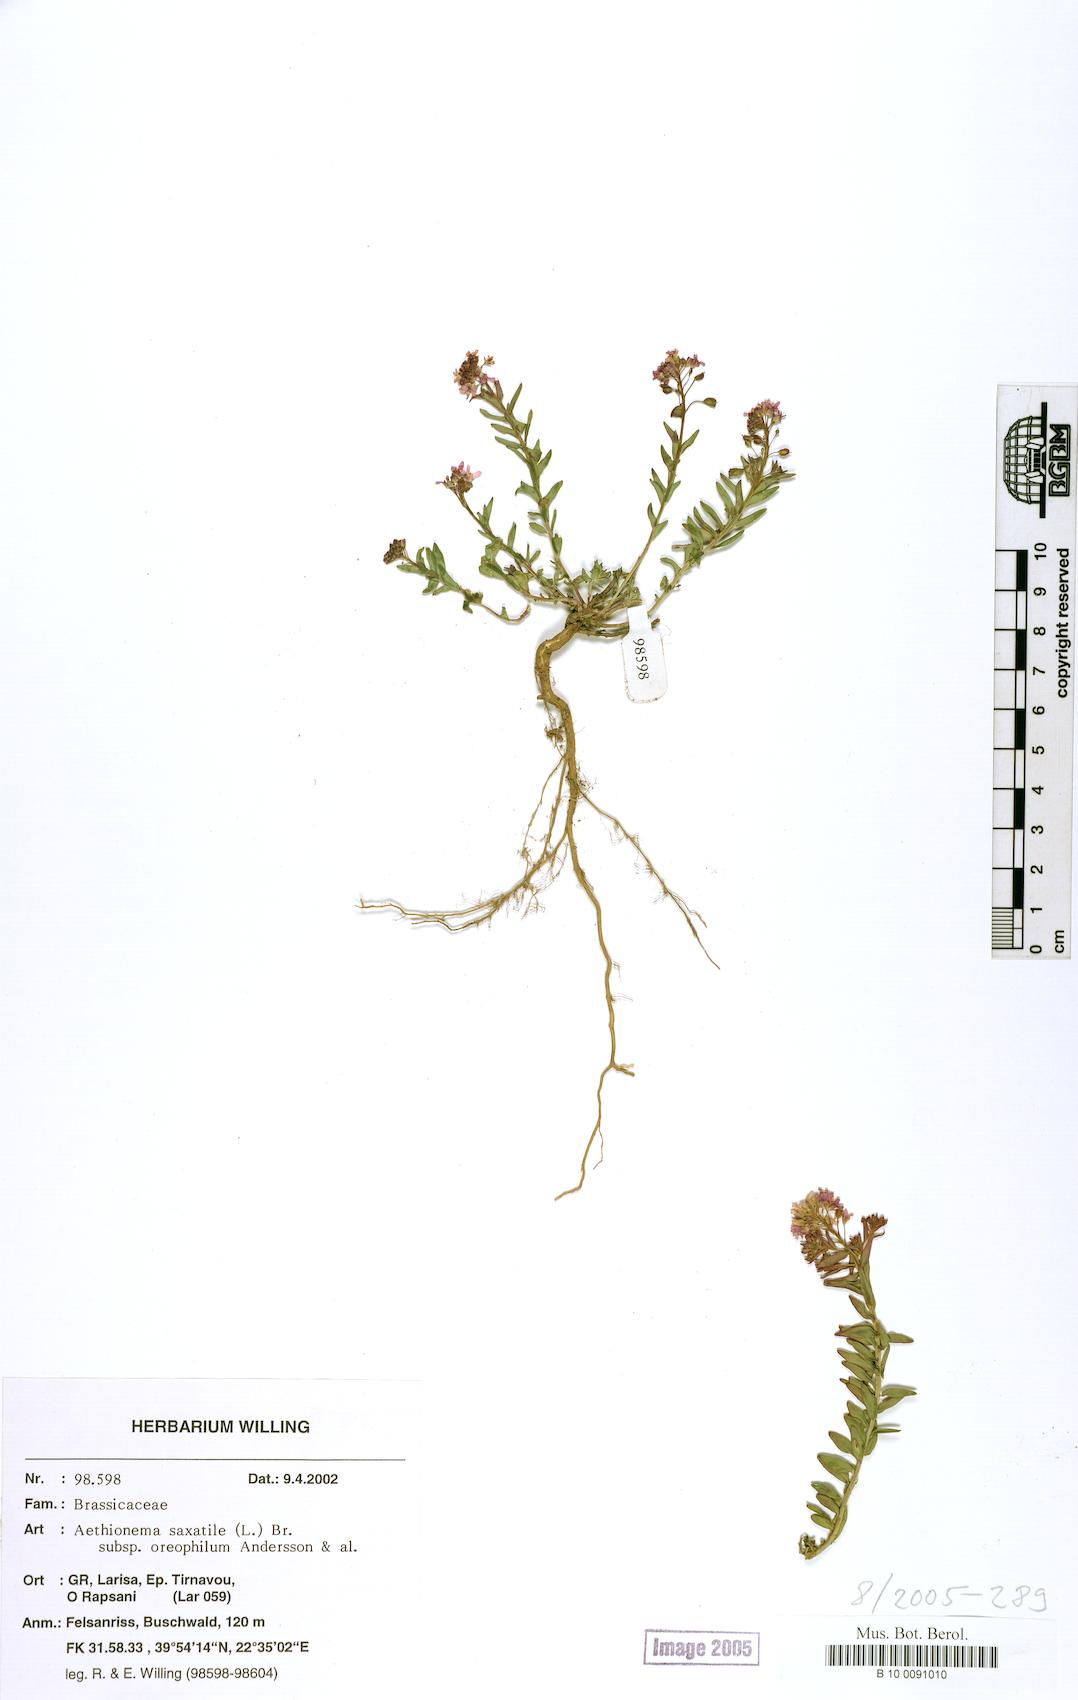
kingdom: Plantae
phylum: Tracheophyta
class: Magnoliopsida
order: Brassicales
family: Brassicaceae
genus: Aethionema
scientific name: Aethionema saxatile
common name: Burnt candytuft
